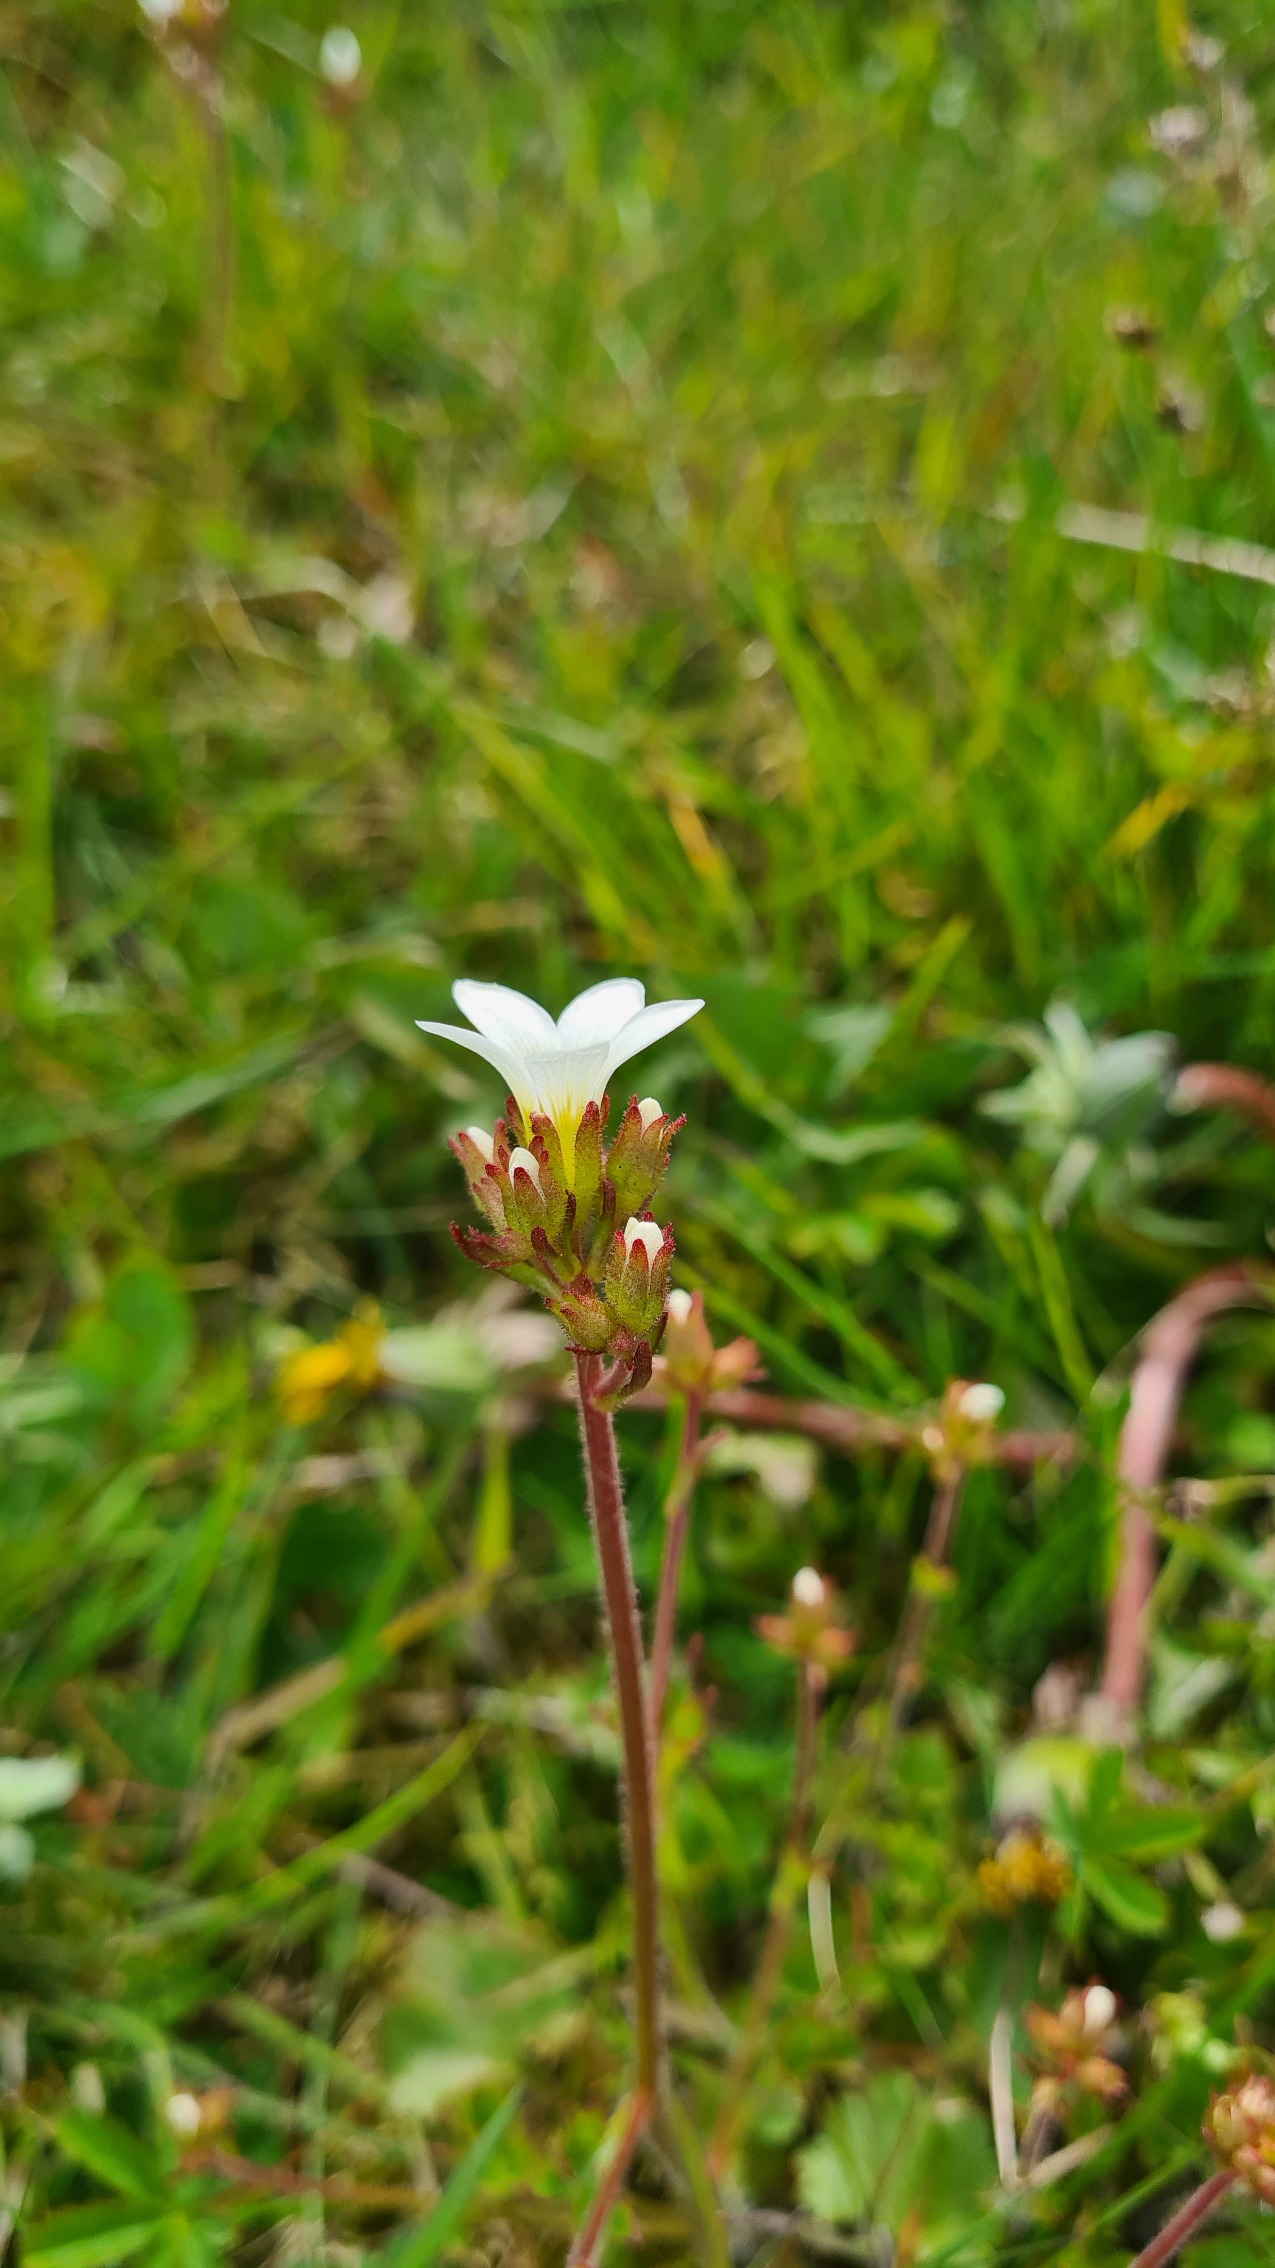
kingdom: Plantae
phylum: Tracheophyta
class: Magnoliopsida
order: Saxifragales
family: Saxifragaceae
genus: Saxifraga
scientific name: Saxifraga granulata
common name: Kornet stenbræk
